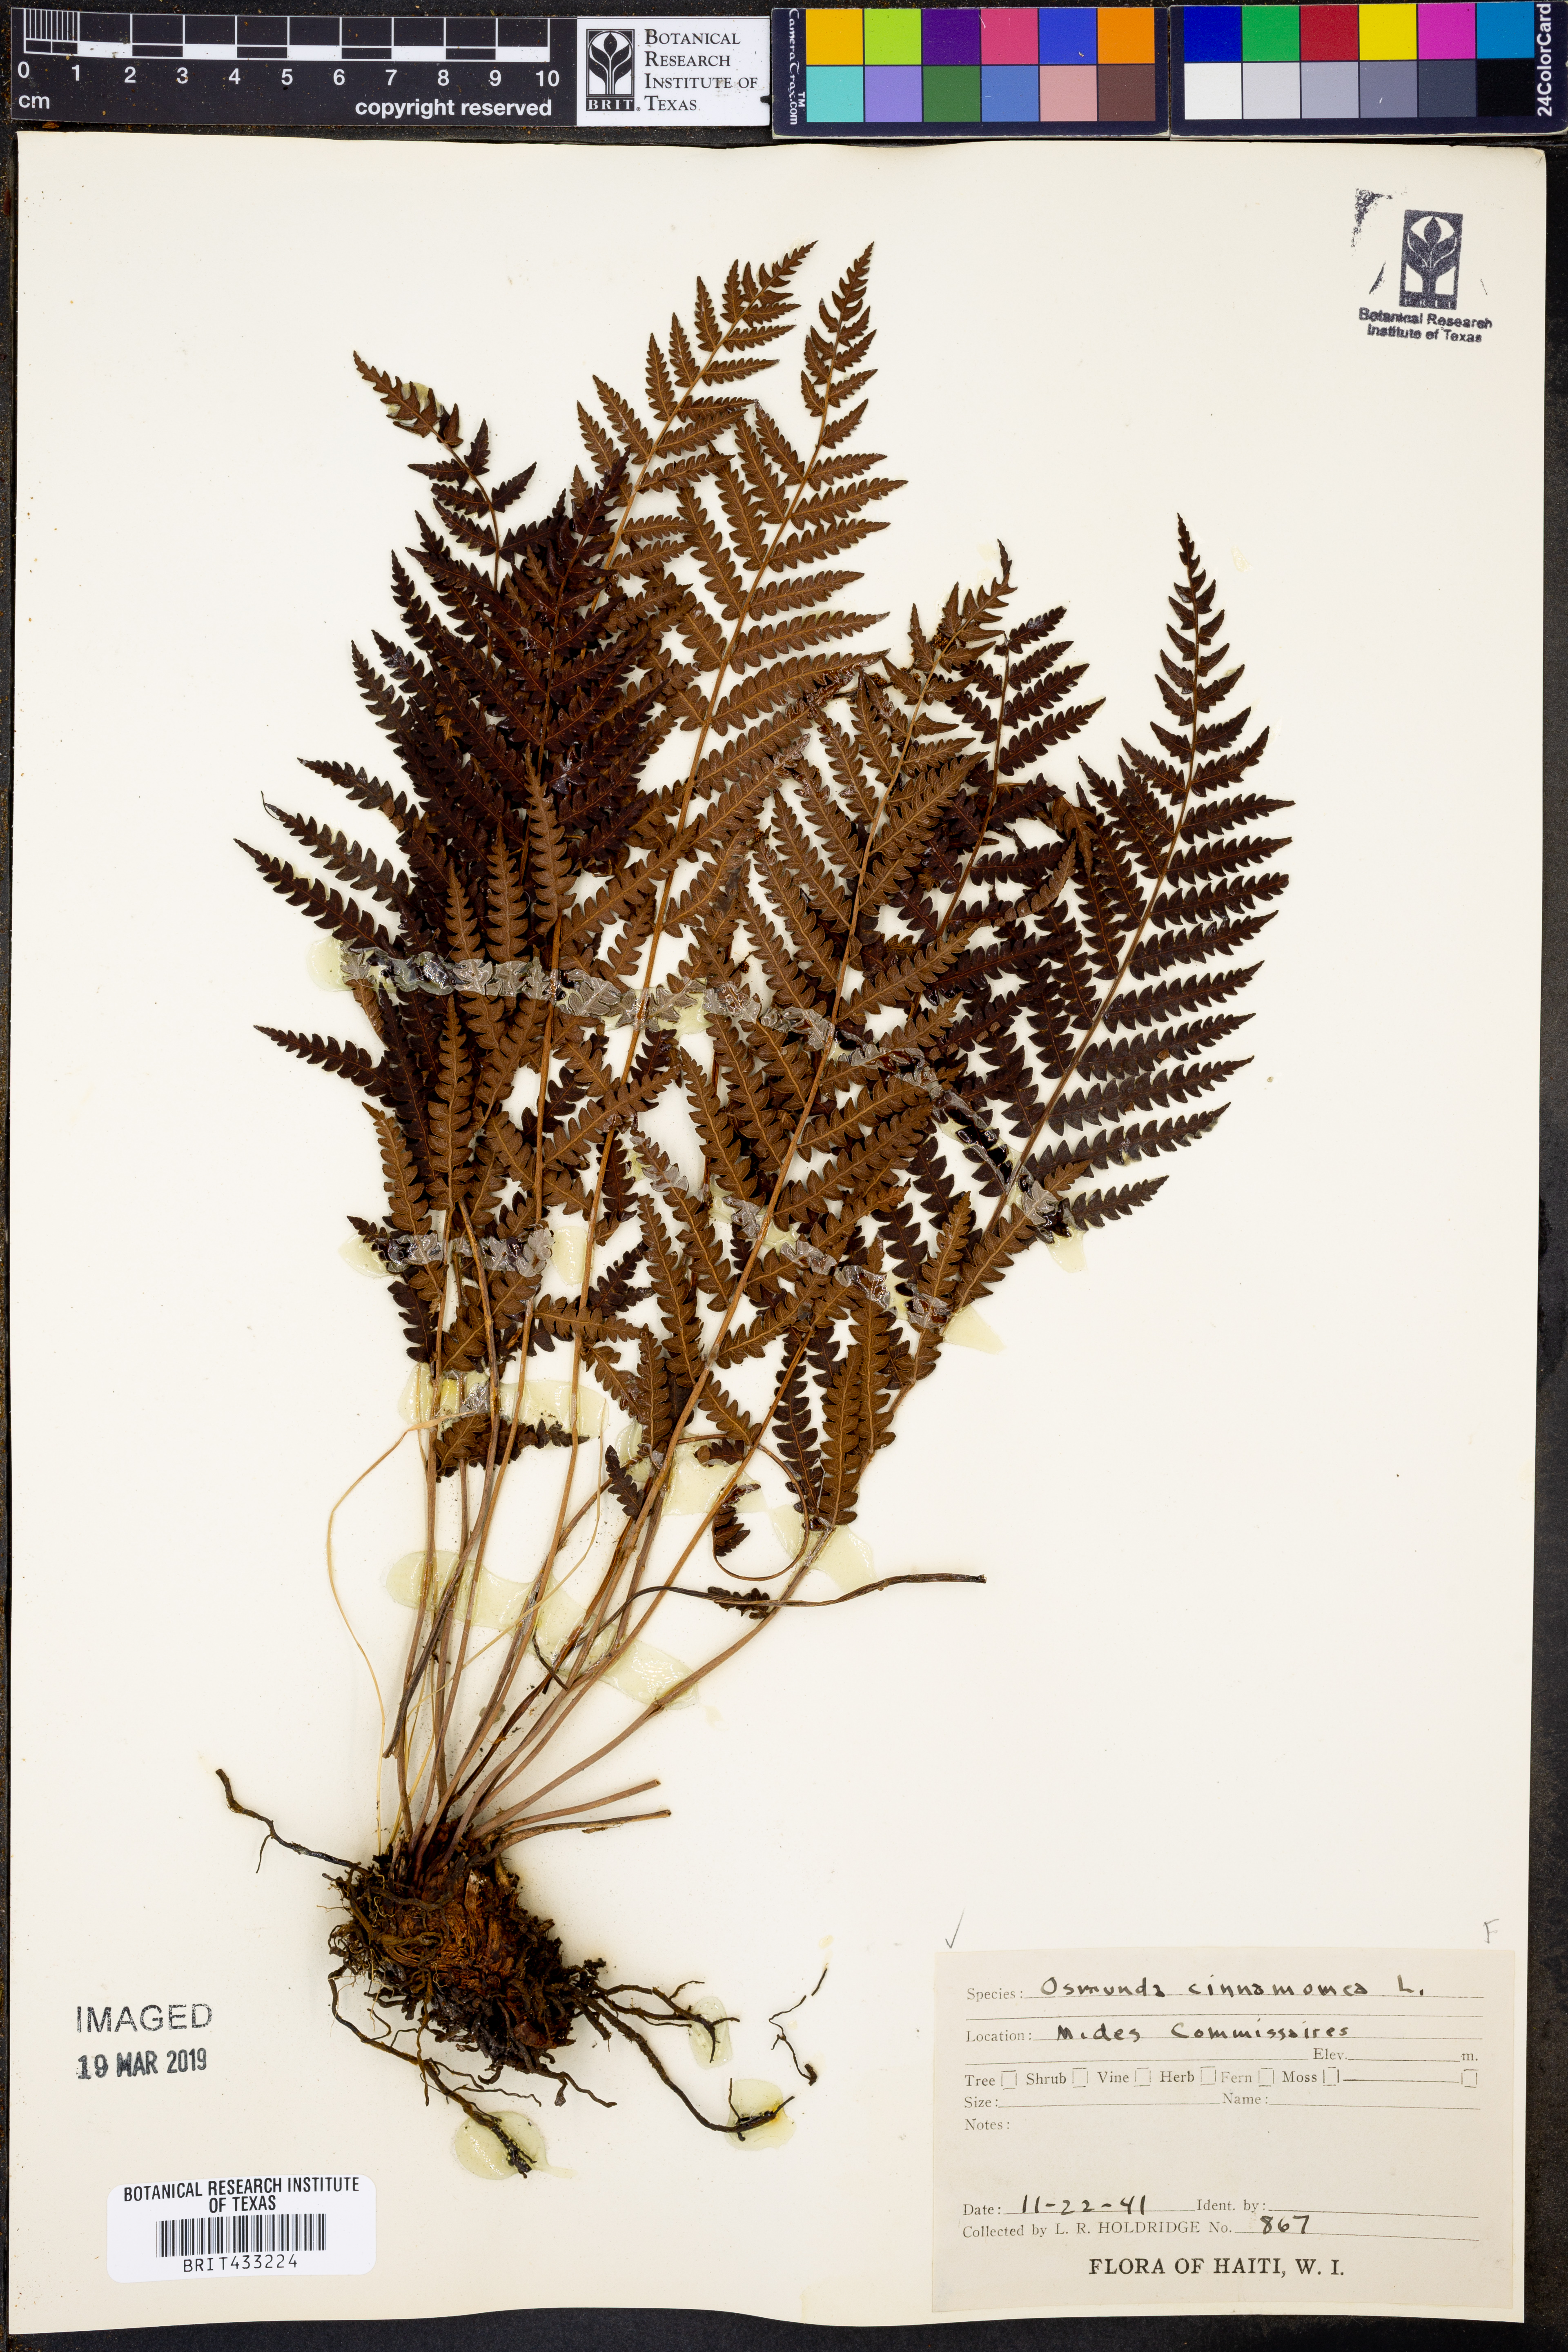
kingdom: Plantae
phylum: Tracheophyta
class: Polypodiopsida
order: Osmundales
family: Osmundaceae
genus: Osmundastrum
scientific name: Osmundastrum cinnamomeum
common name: Cinnamon fern
